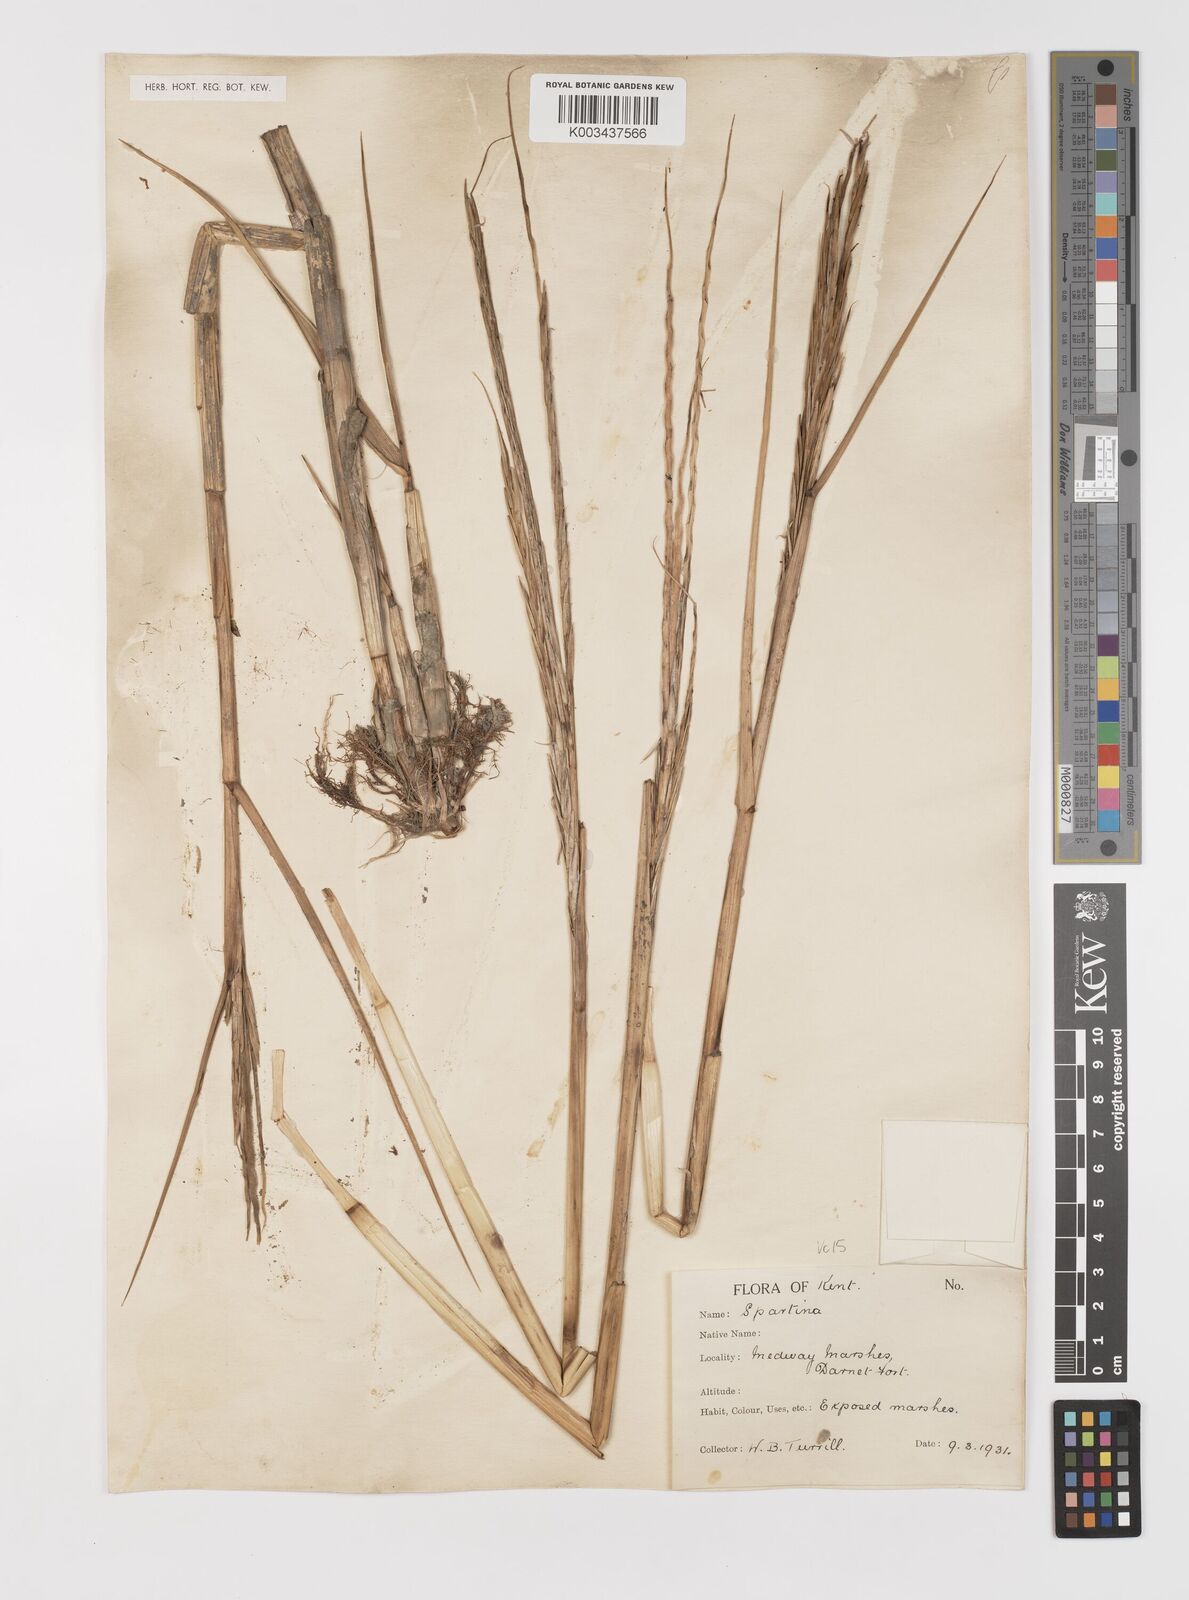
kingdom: Plantae
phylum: Tracheophyta
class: Liliopsida
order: Poales
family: Poaceae
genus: Sporobolus
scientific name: Sporobolus anglicus
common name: English cordgrass
